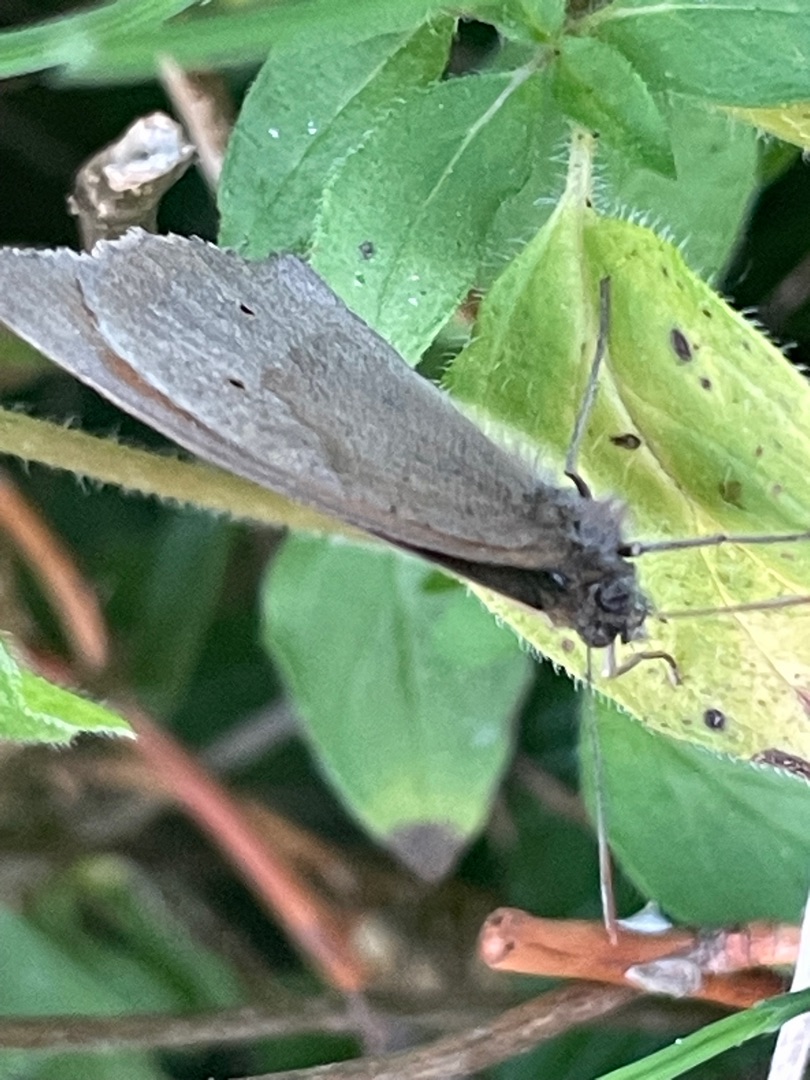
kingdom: Animalia
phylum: Arthropoda
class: Insecta
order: Lepidoptera
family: Nymphalidae
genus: Maniola
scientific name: Maniola jurtina
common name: Græsrandøje
